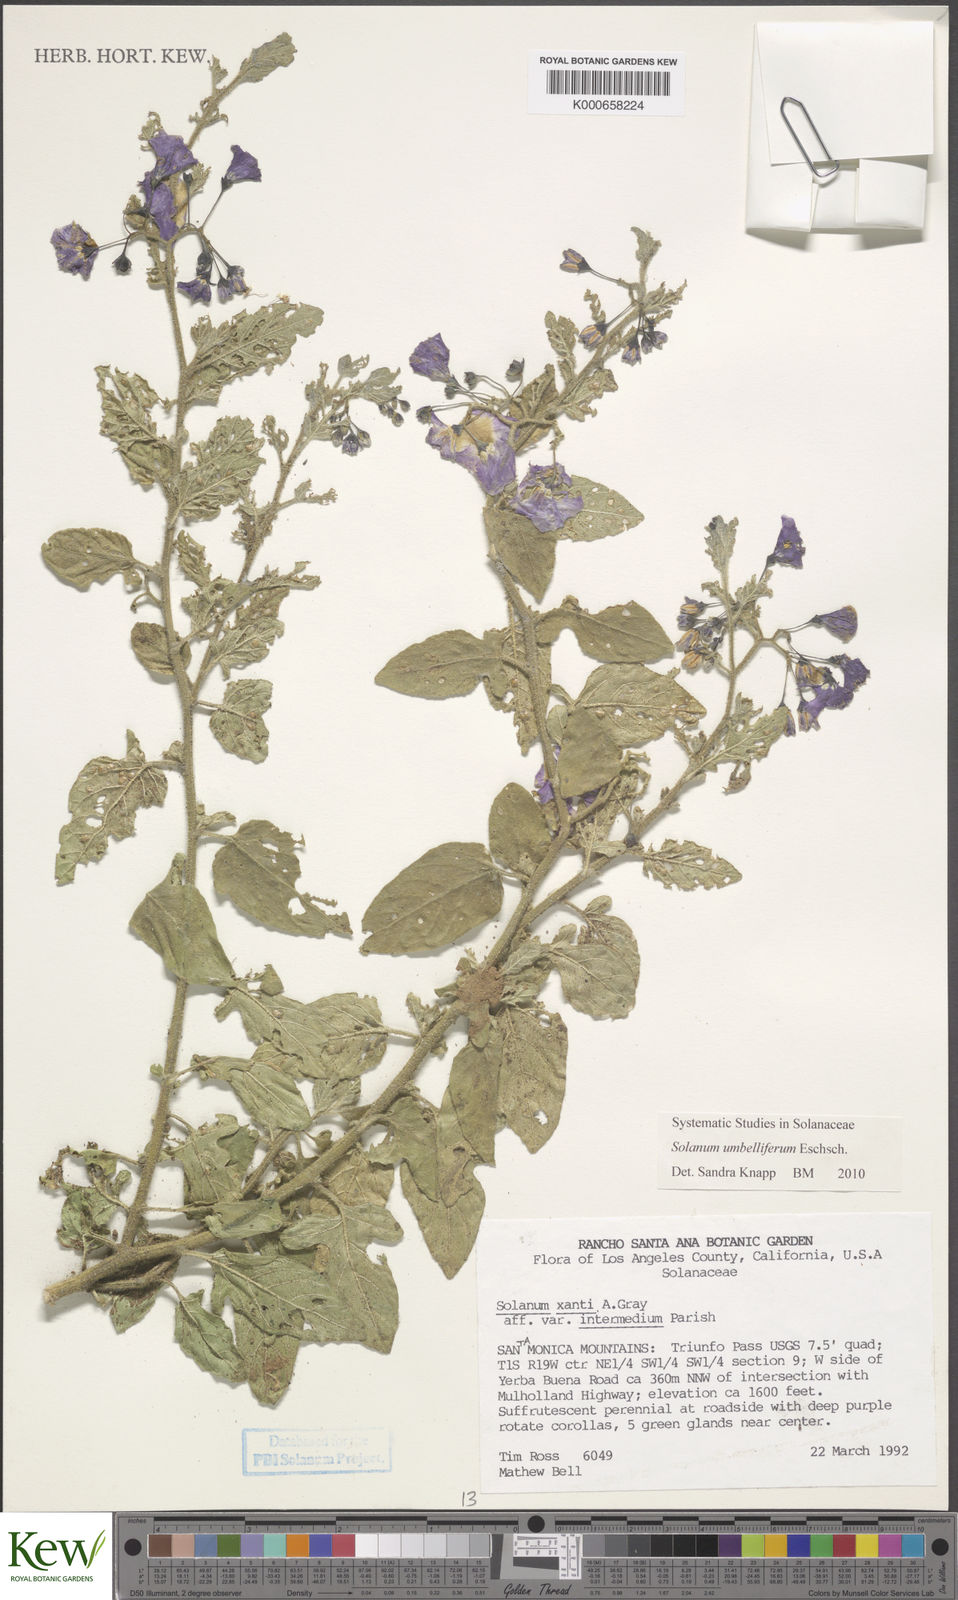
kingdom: Plantae
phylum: Tracheophyta
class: Magnoliopsida
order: Solanales
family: Solanaceae
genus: Solanum
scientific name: Solanum umbelliferum
